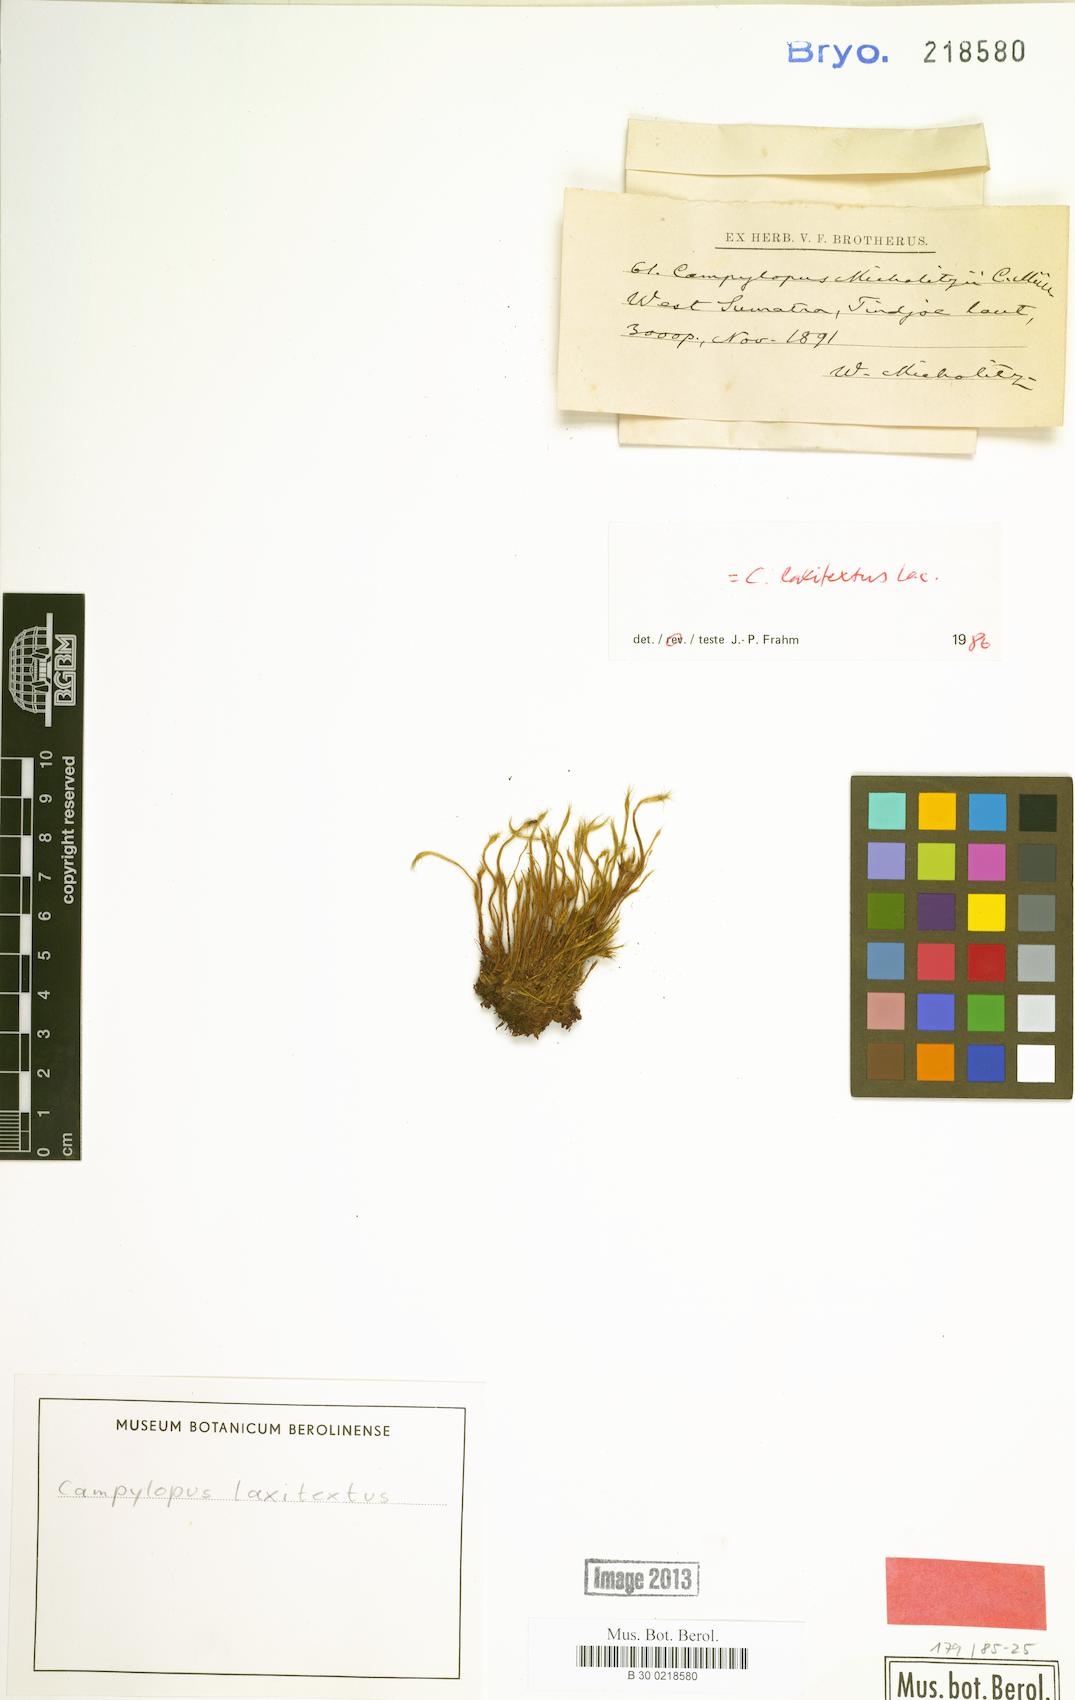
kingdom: Plantae
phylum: Bryophyta
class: Bryopsida
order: Dicranales
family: Leucobryaceae
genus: Campylopus
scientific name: Campylopus laxitextus
